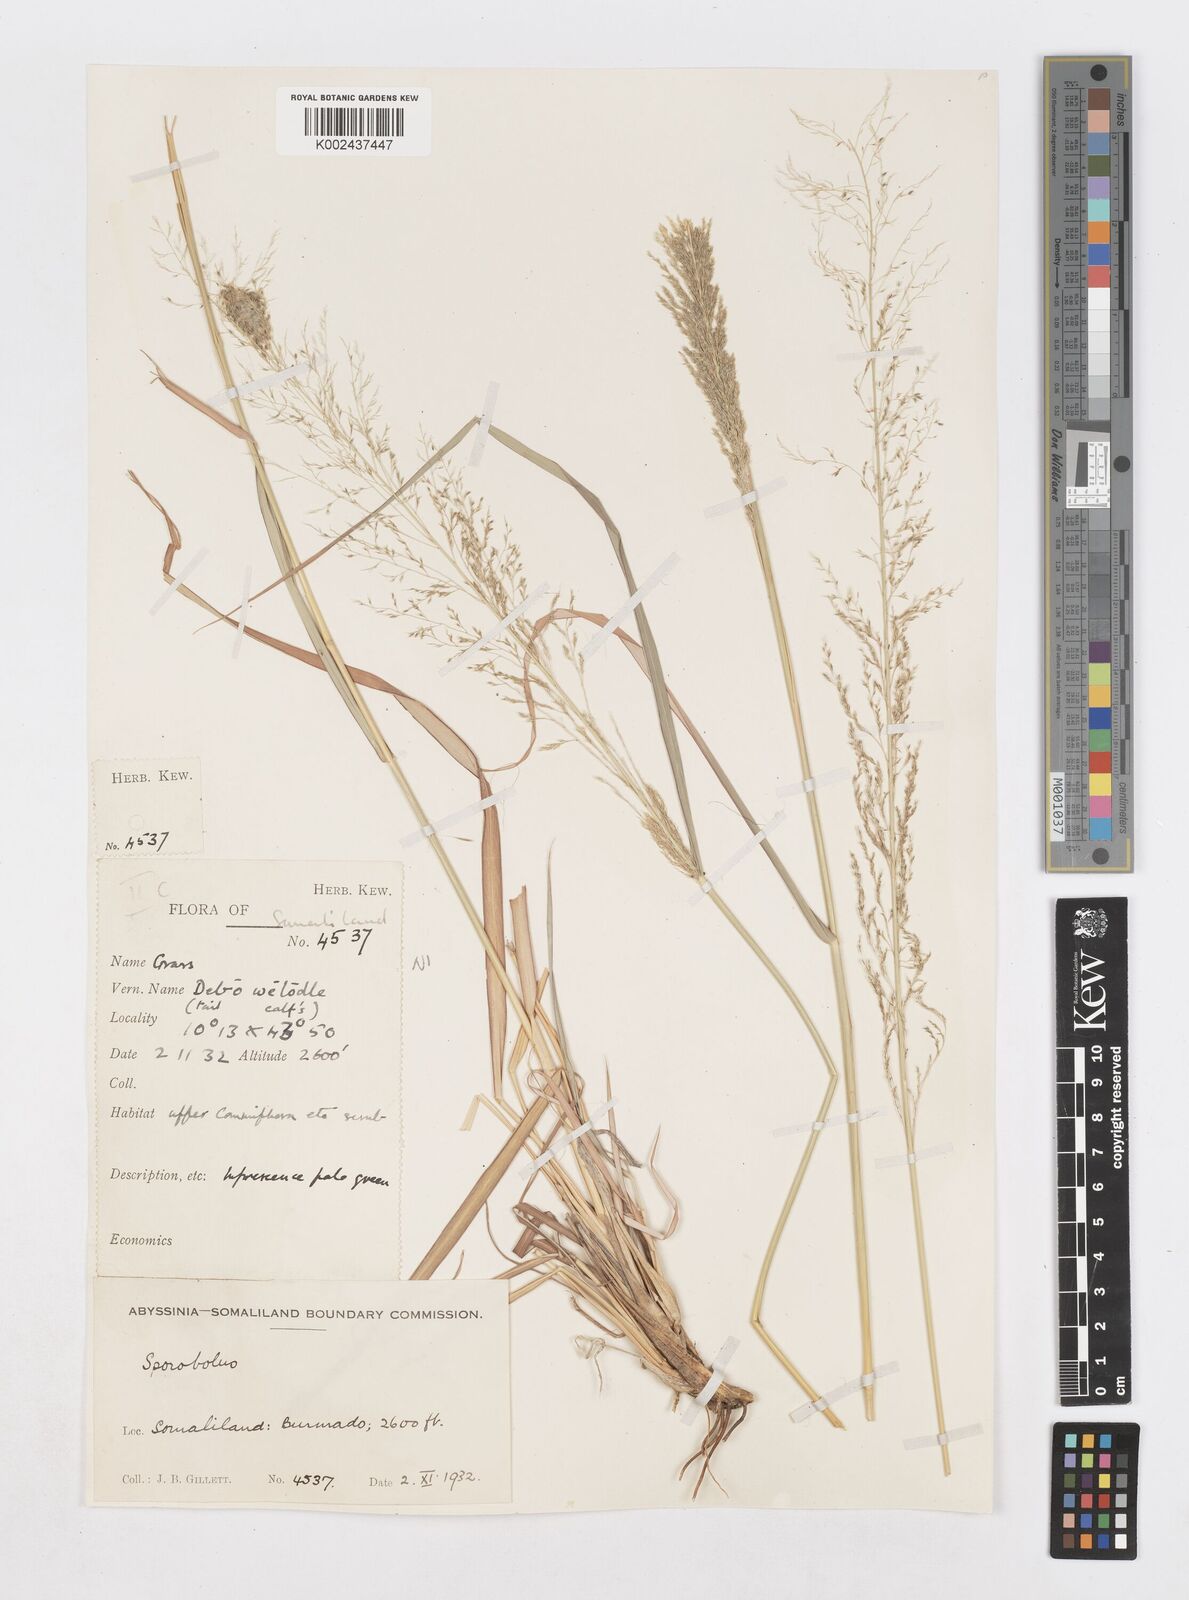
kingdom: Plantae
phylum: Tracheophyta
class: Liliopsida
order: Poales
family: Poaceae
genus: Sporobolus
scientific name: Sporobolus fimbriatus
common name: Fringed dropseed
